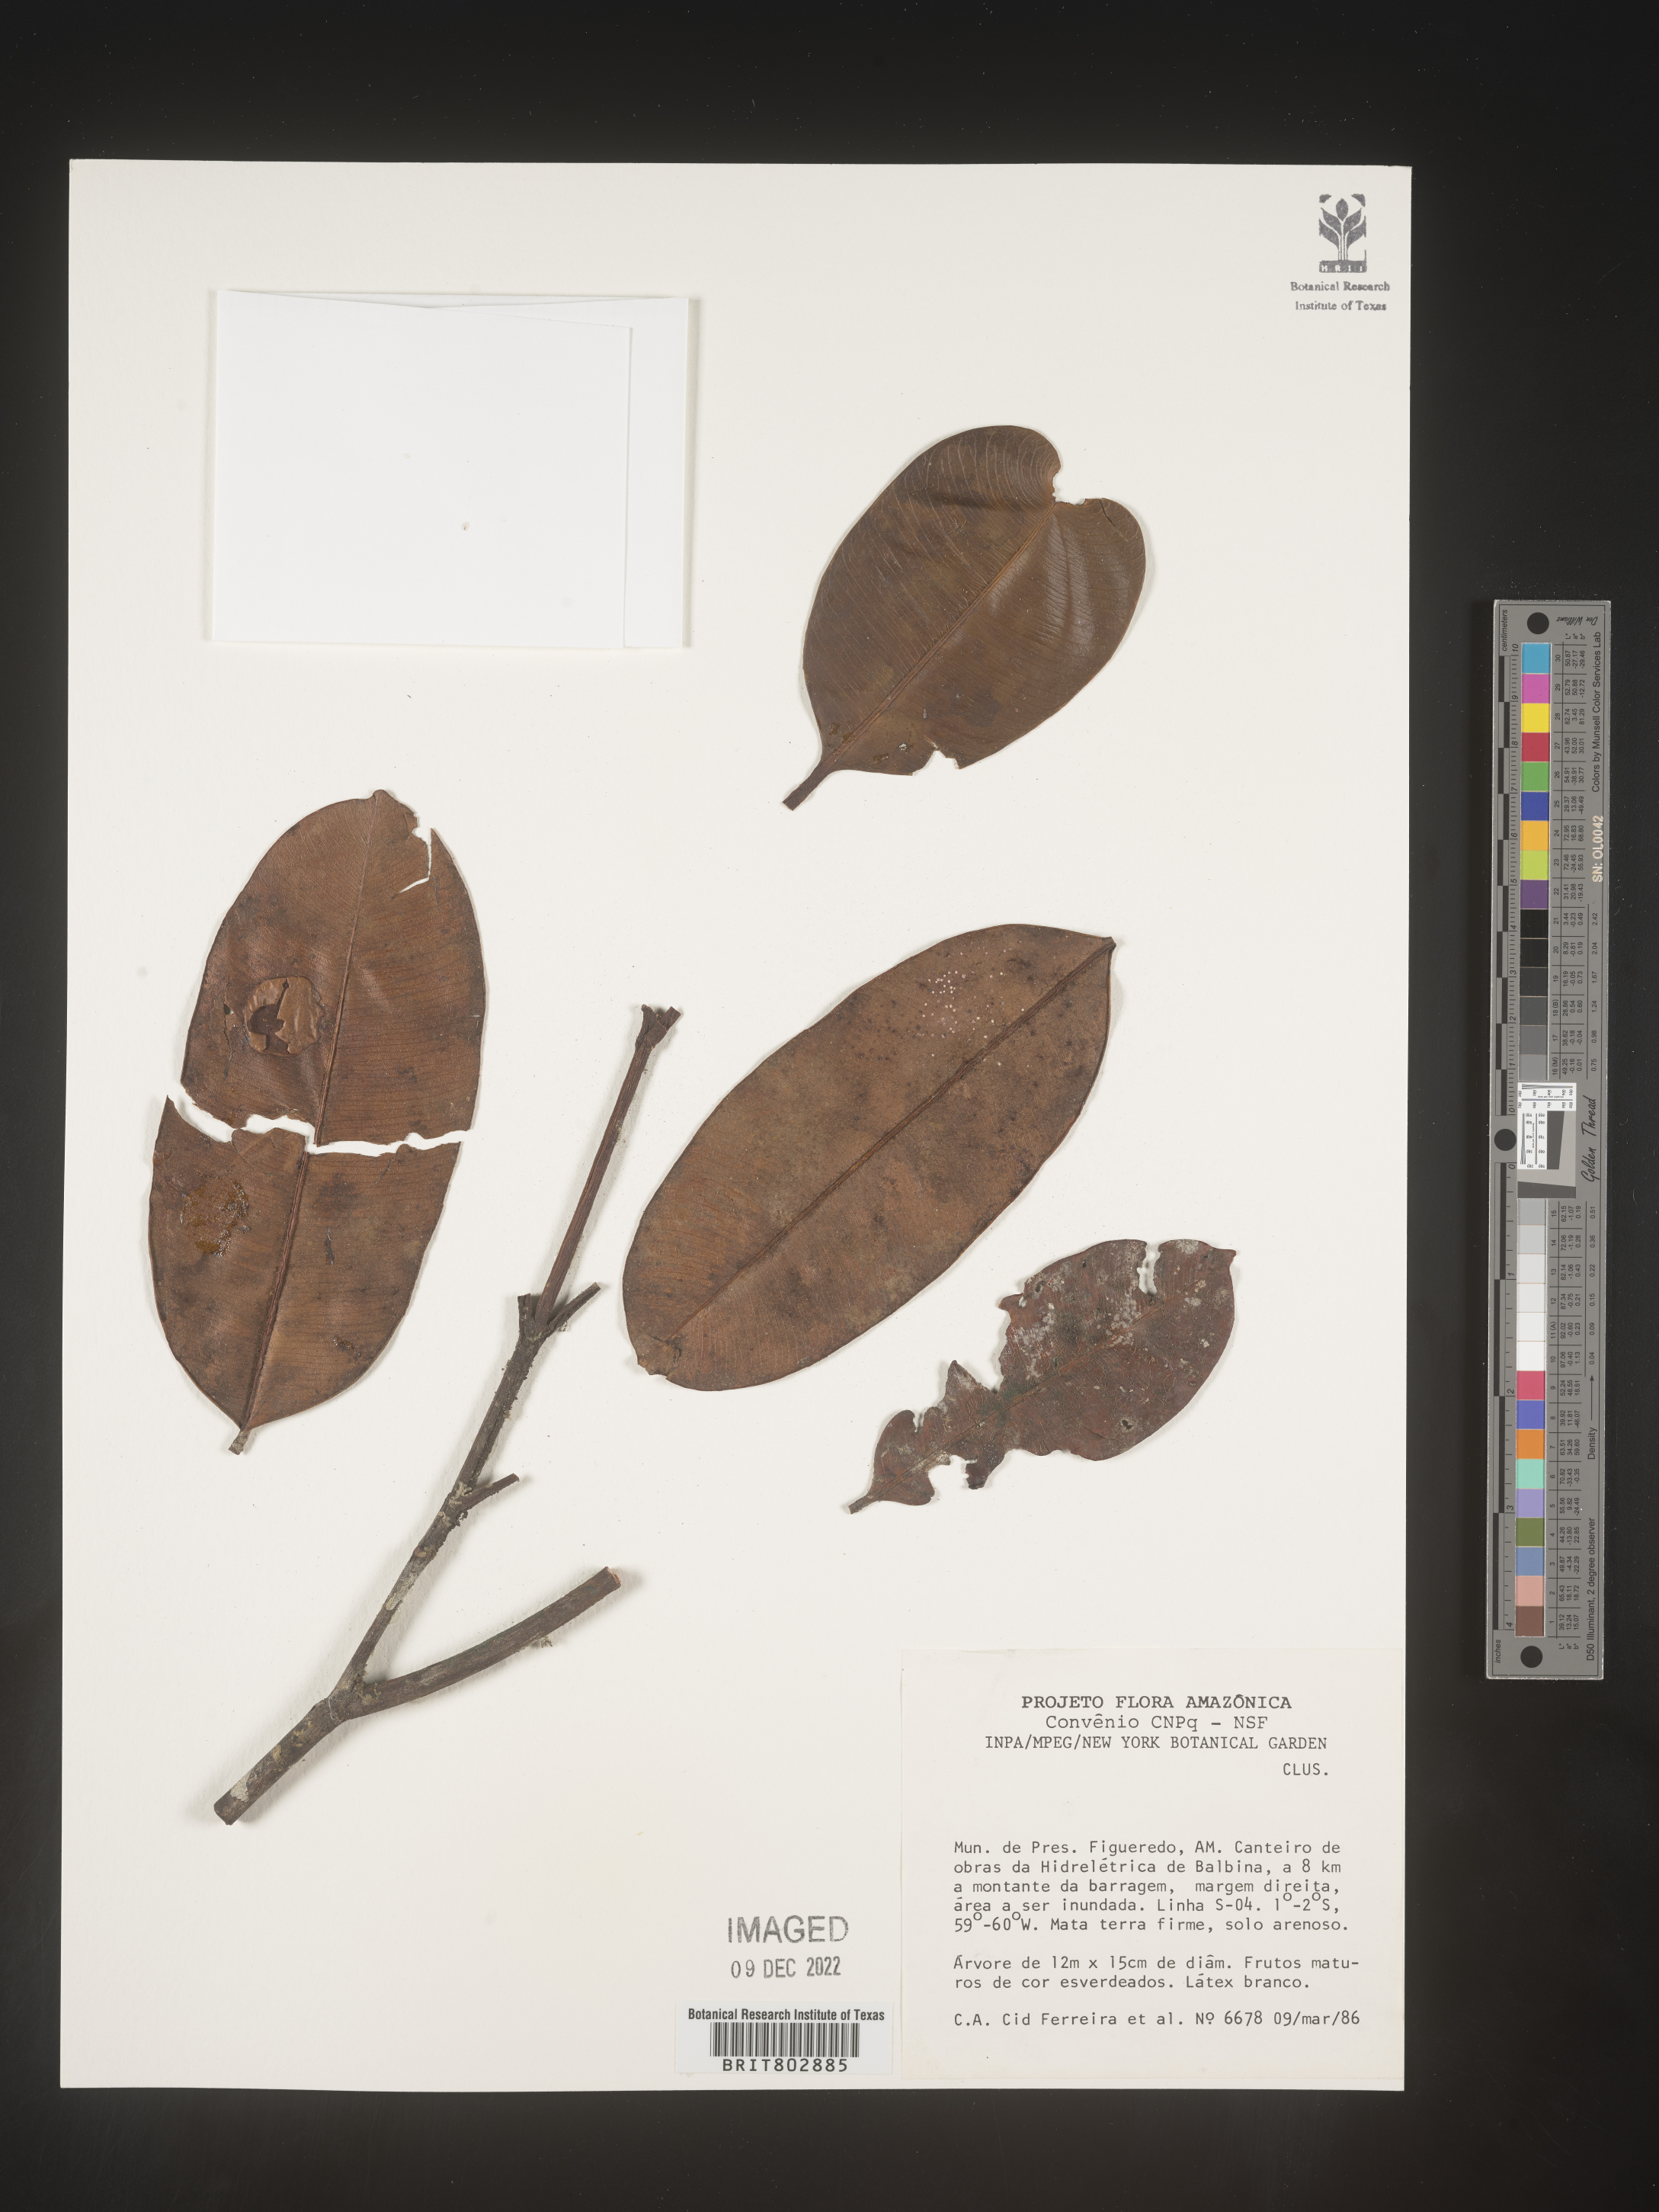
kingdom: Plantae
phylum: Tracheophyta
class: Magnoliopsida
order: Malpighiales
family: Clusiaceae
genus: Lorostemon
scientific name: Lorostemon
